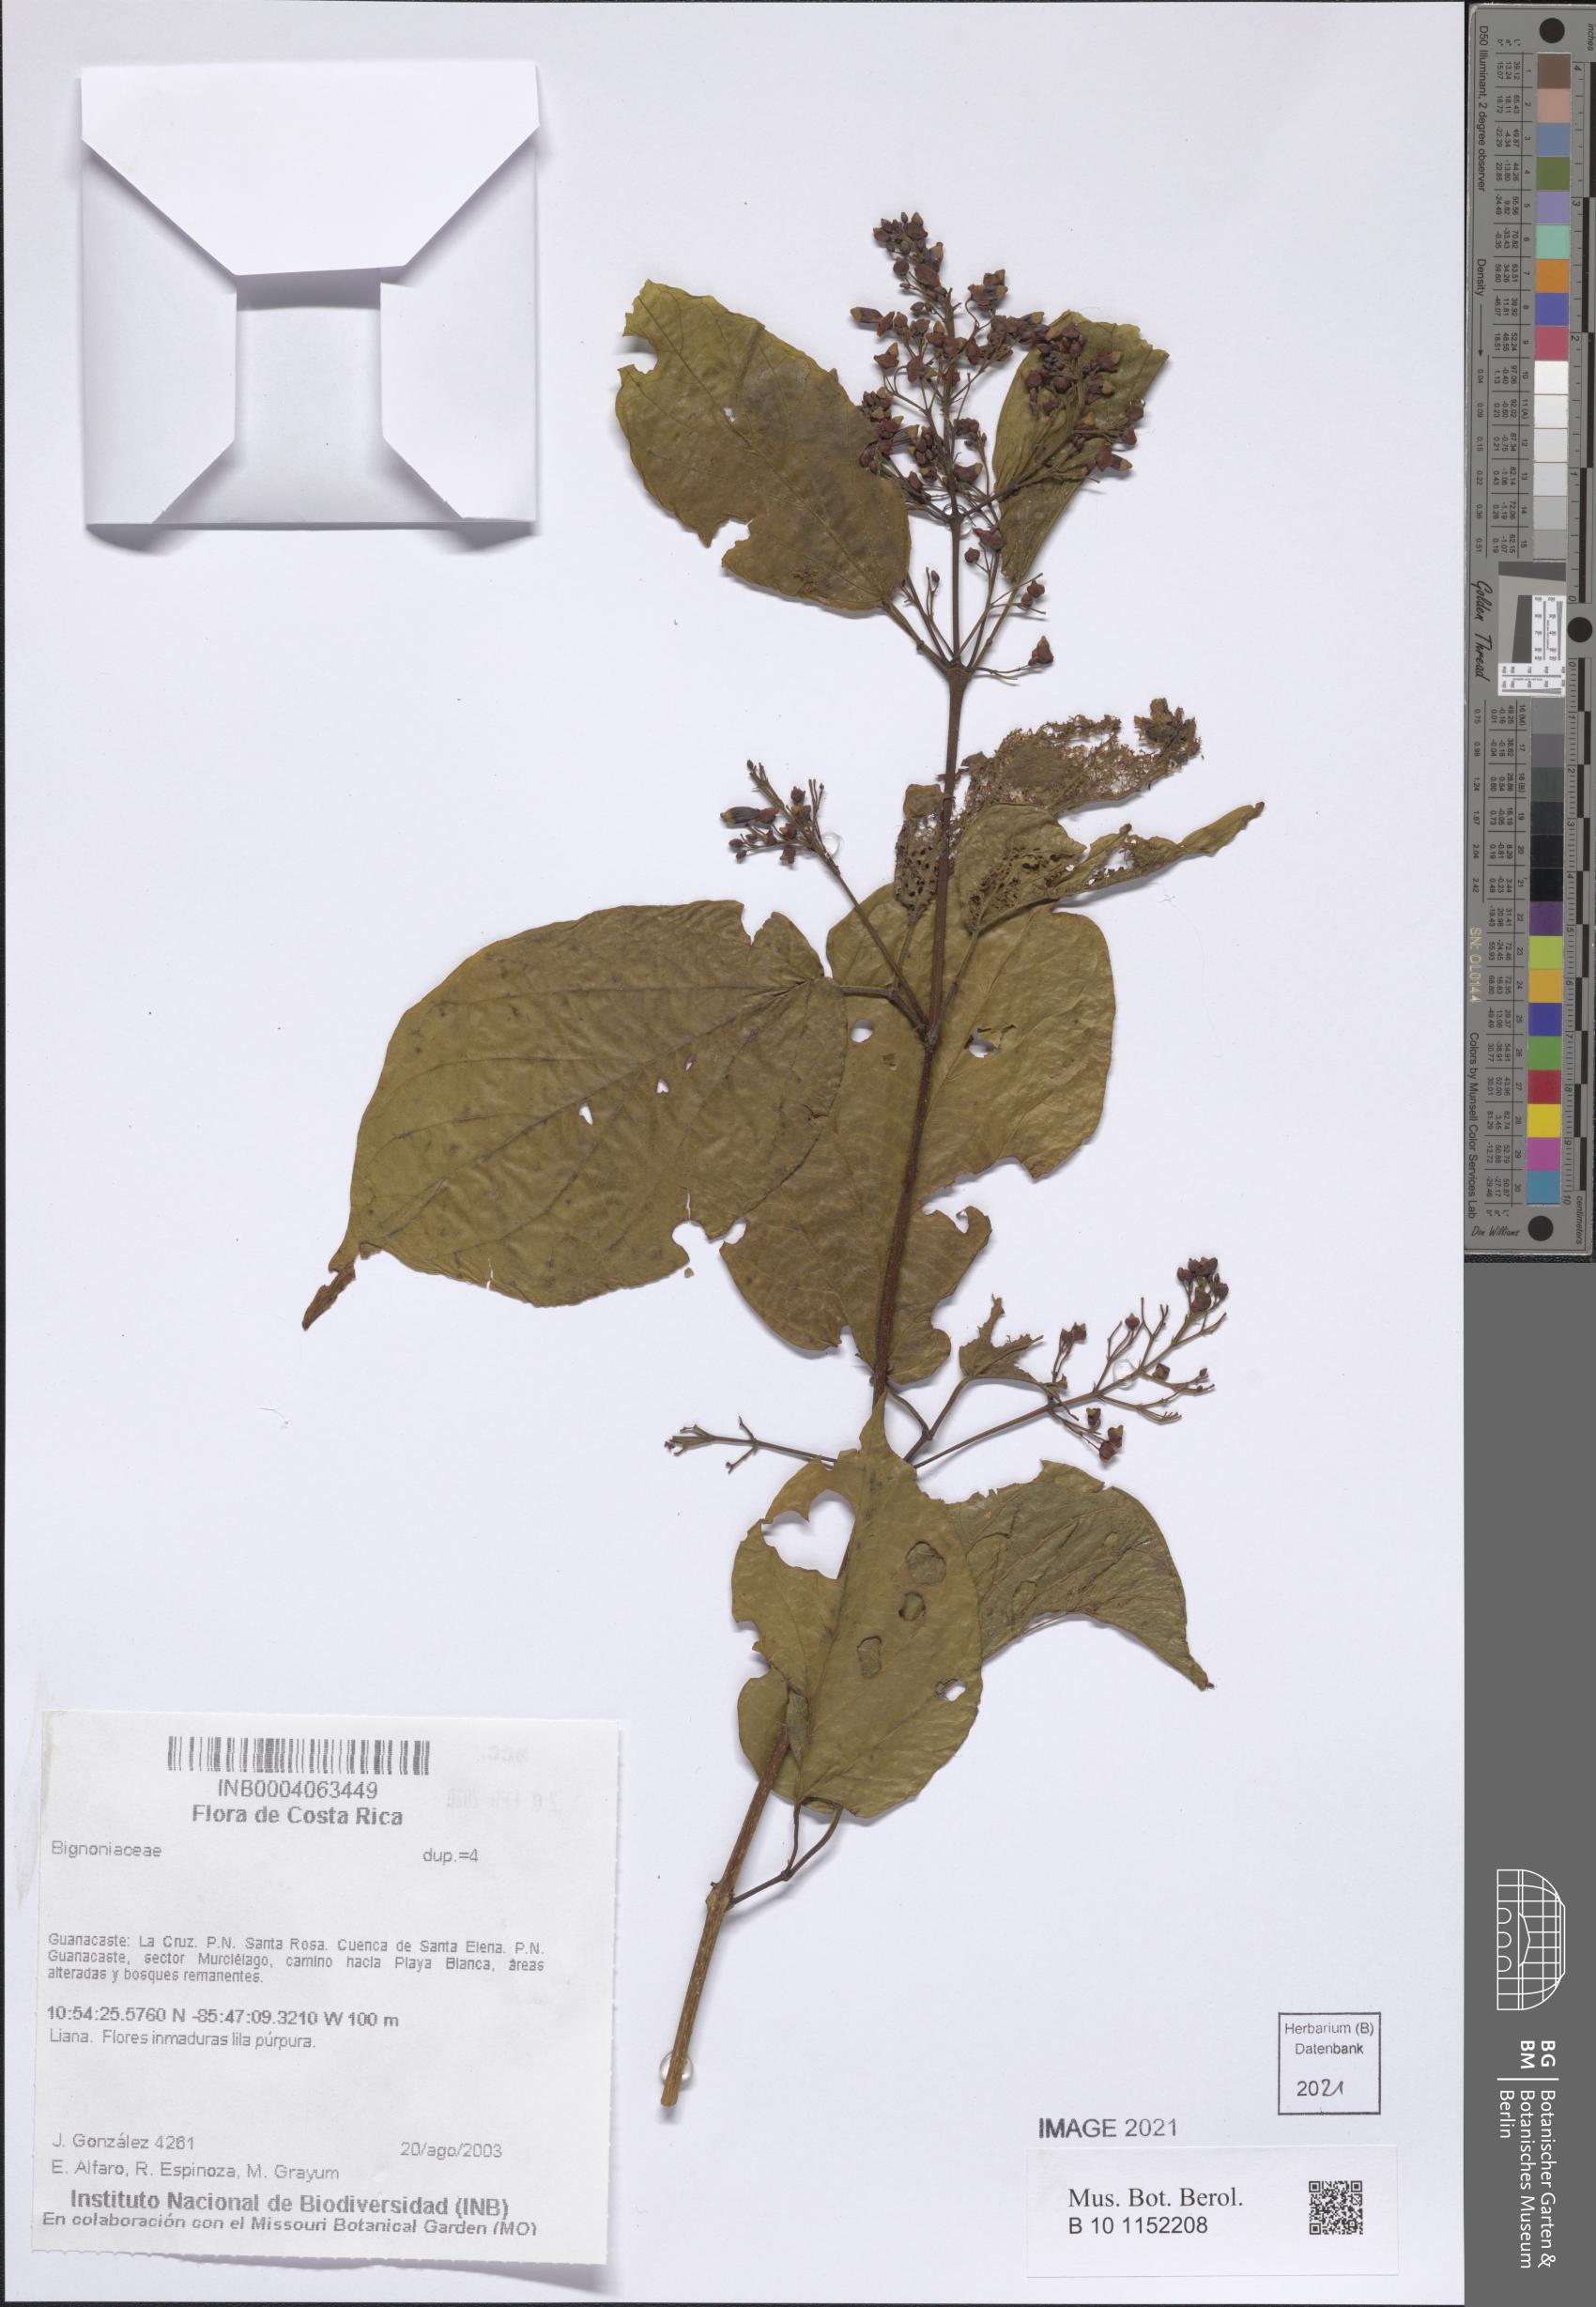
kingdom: Plantae
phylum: Tracheophyta
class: Magnoliopsida
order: Lamiales
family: Bignoniaceae
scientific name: Bignoniaceae
